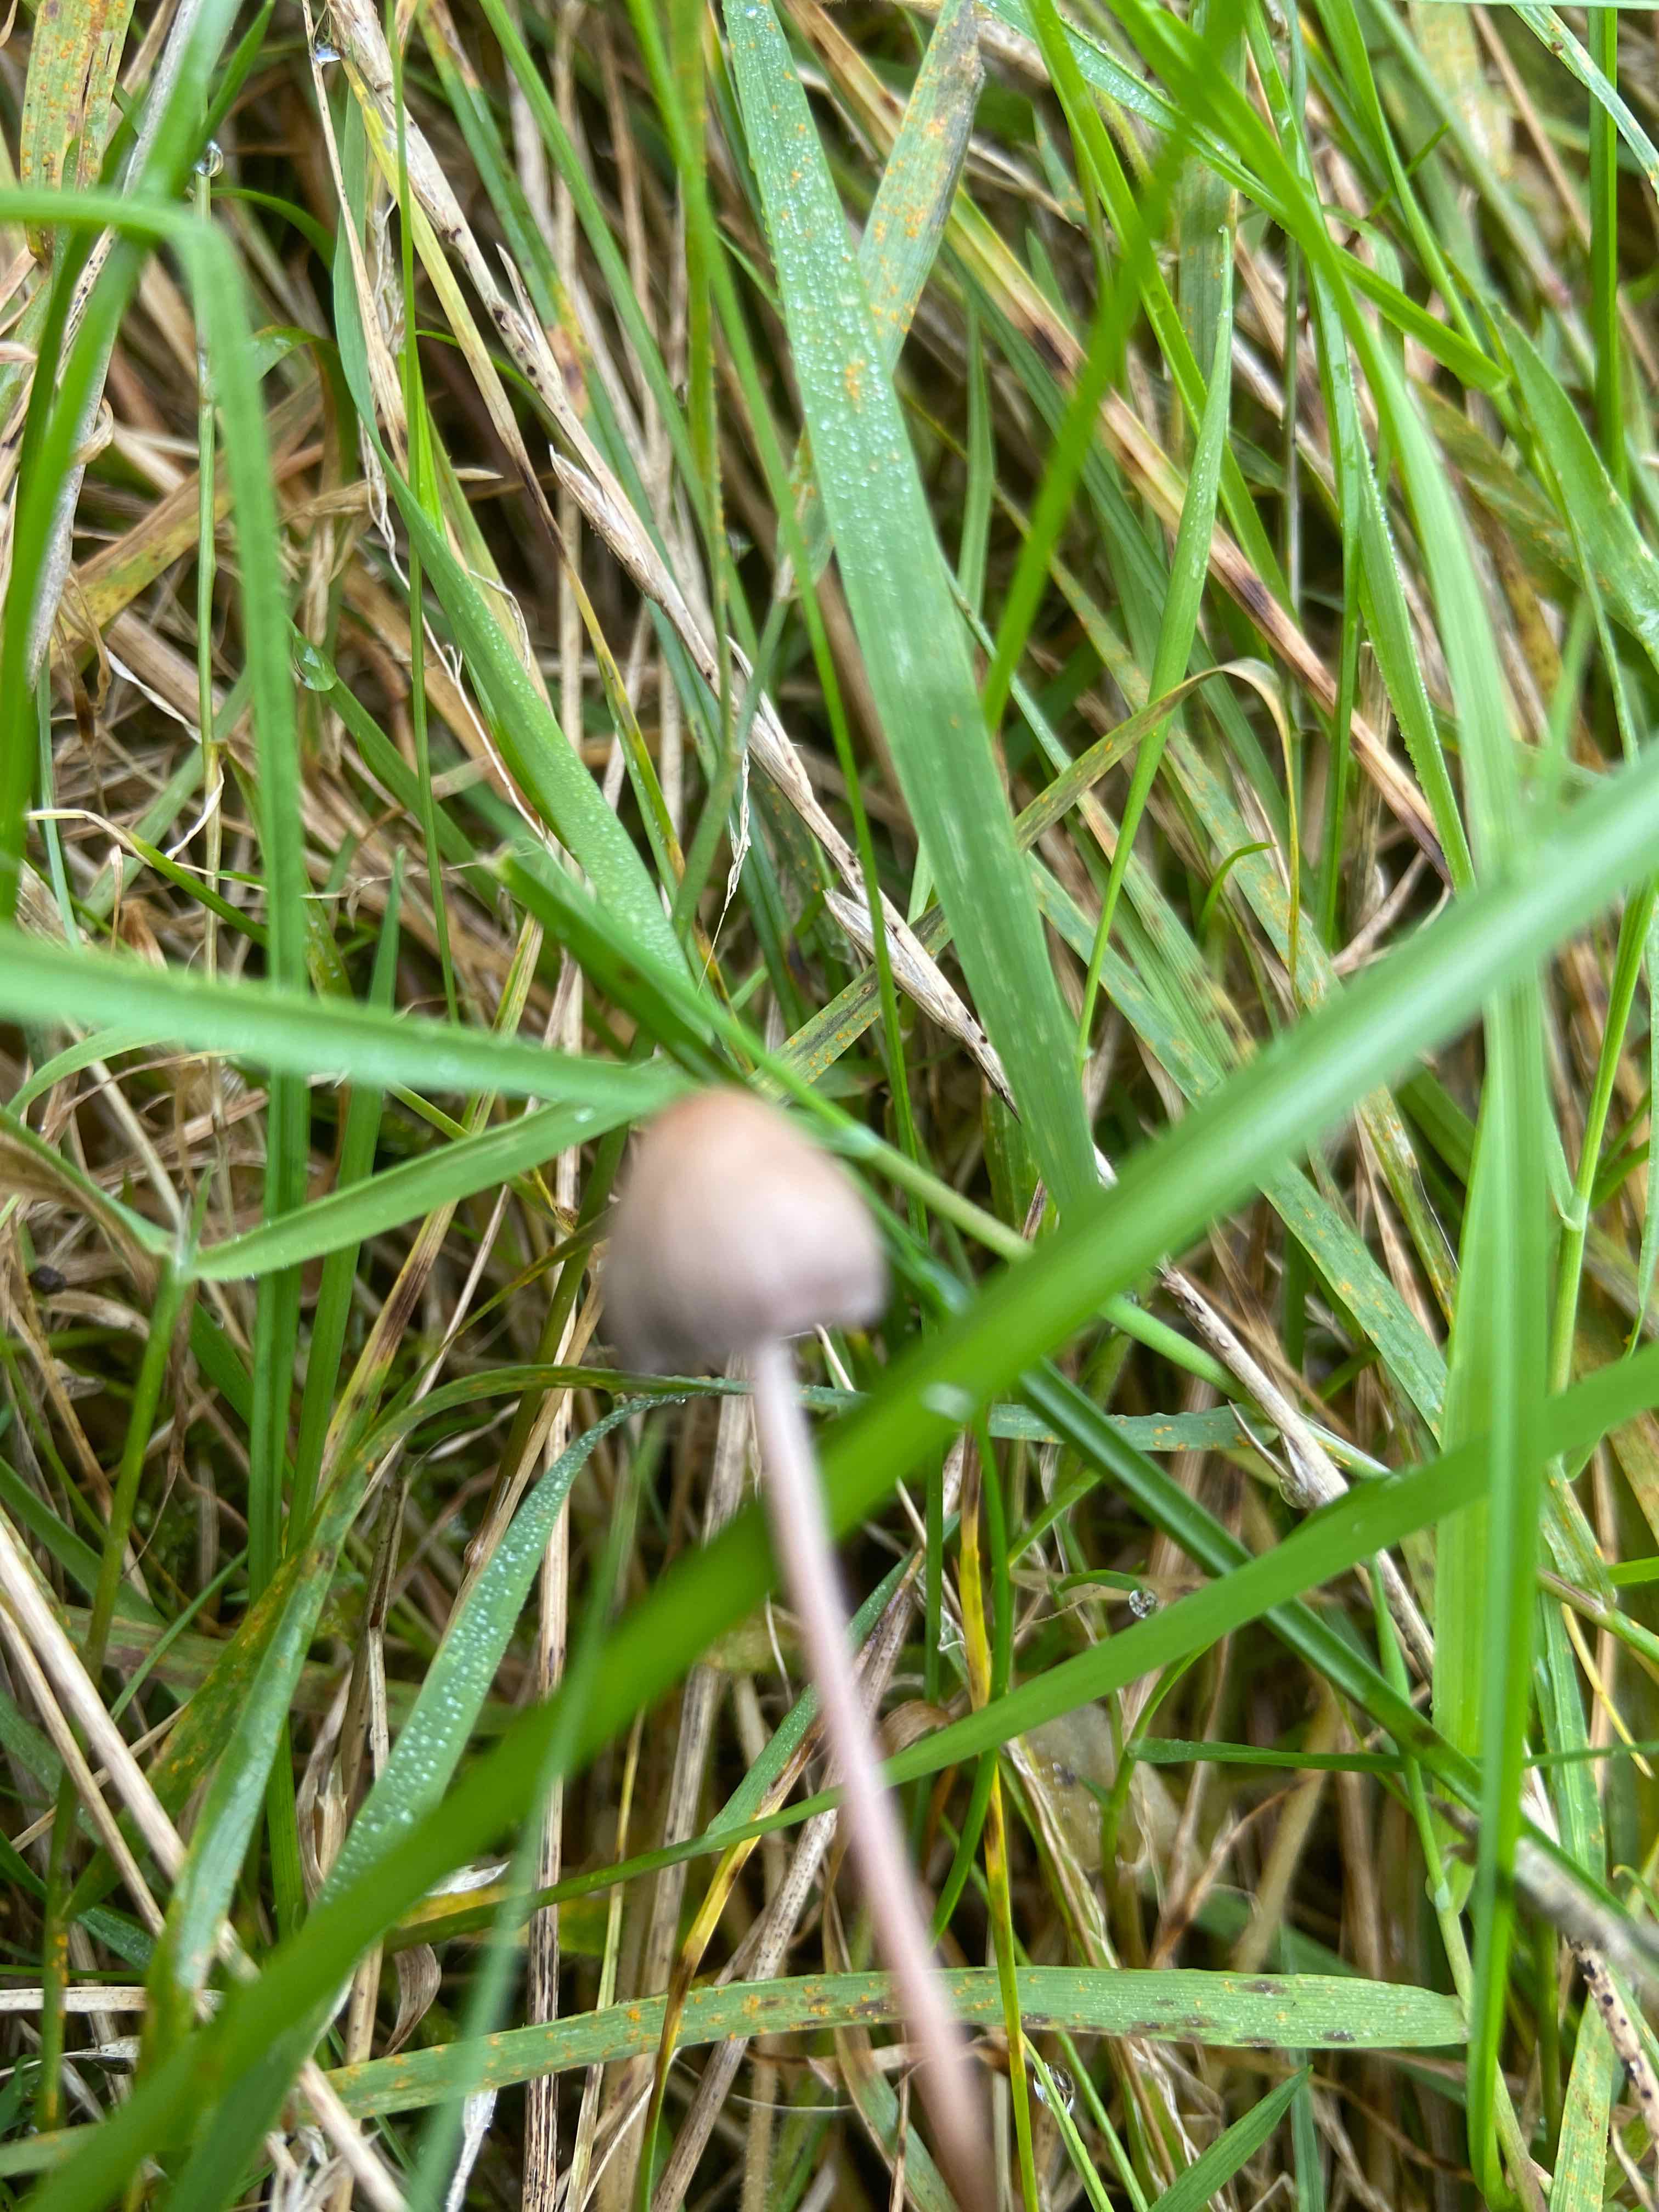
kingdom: Fungi
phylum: Basidiomycota
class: Agaricomycetes
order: Agaricales
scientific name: Agaricales
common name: champignonordenen
